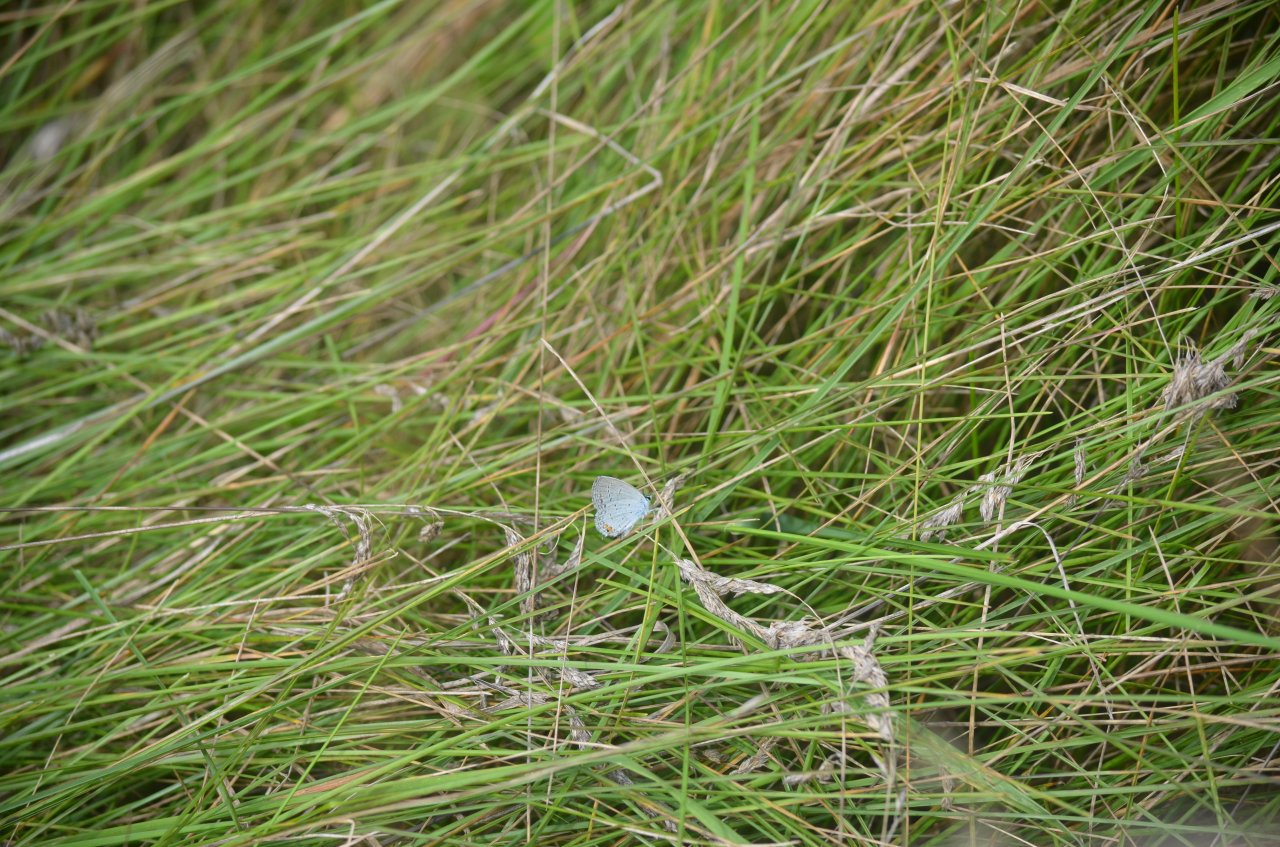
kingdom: Animalia
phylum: Arthropoda
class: Insecta
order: Lepidoptera
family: Lycaenidae
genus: Elkalyce
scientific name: Elkalyce comyntas
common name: Eastern Tailed-Blue
